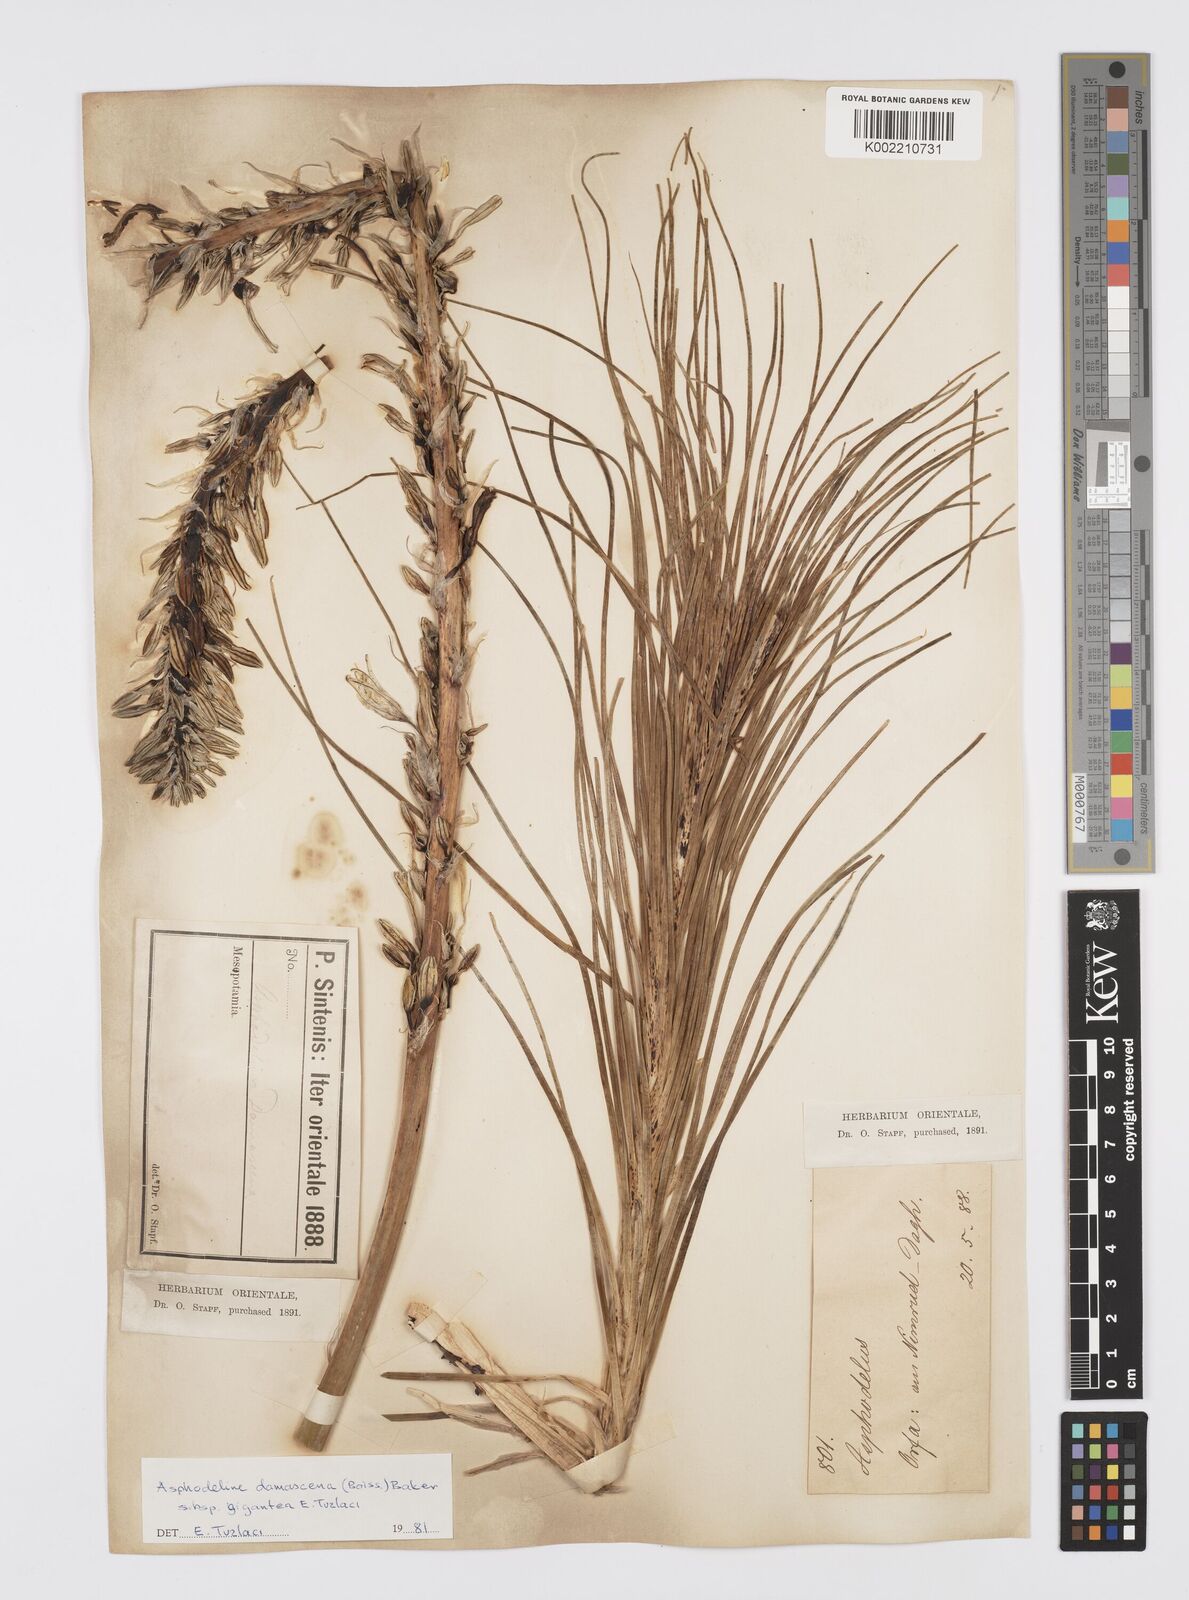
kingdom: Plantae
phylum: Tracheophyta
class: Liliopsida
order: Asparagales
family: Asphodelaceae
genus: Asphodeline
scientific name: Asphodeline damascena
